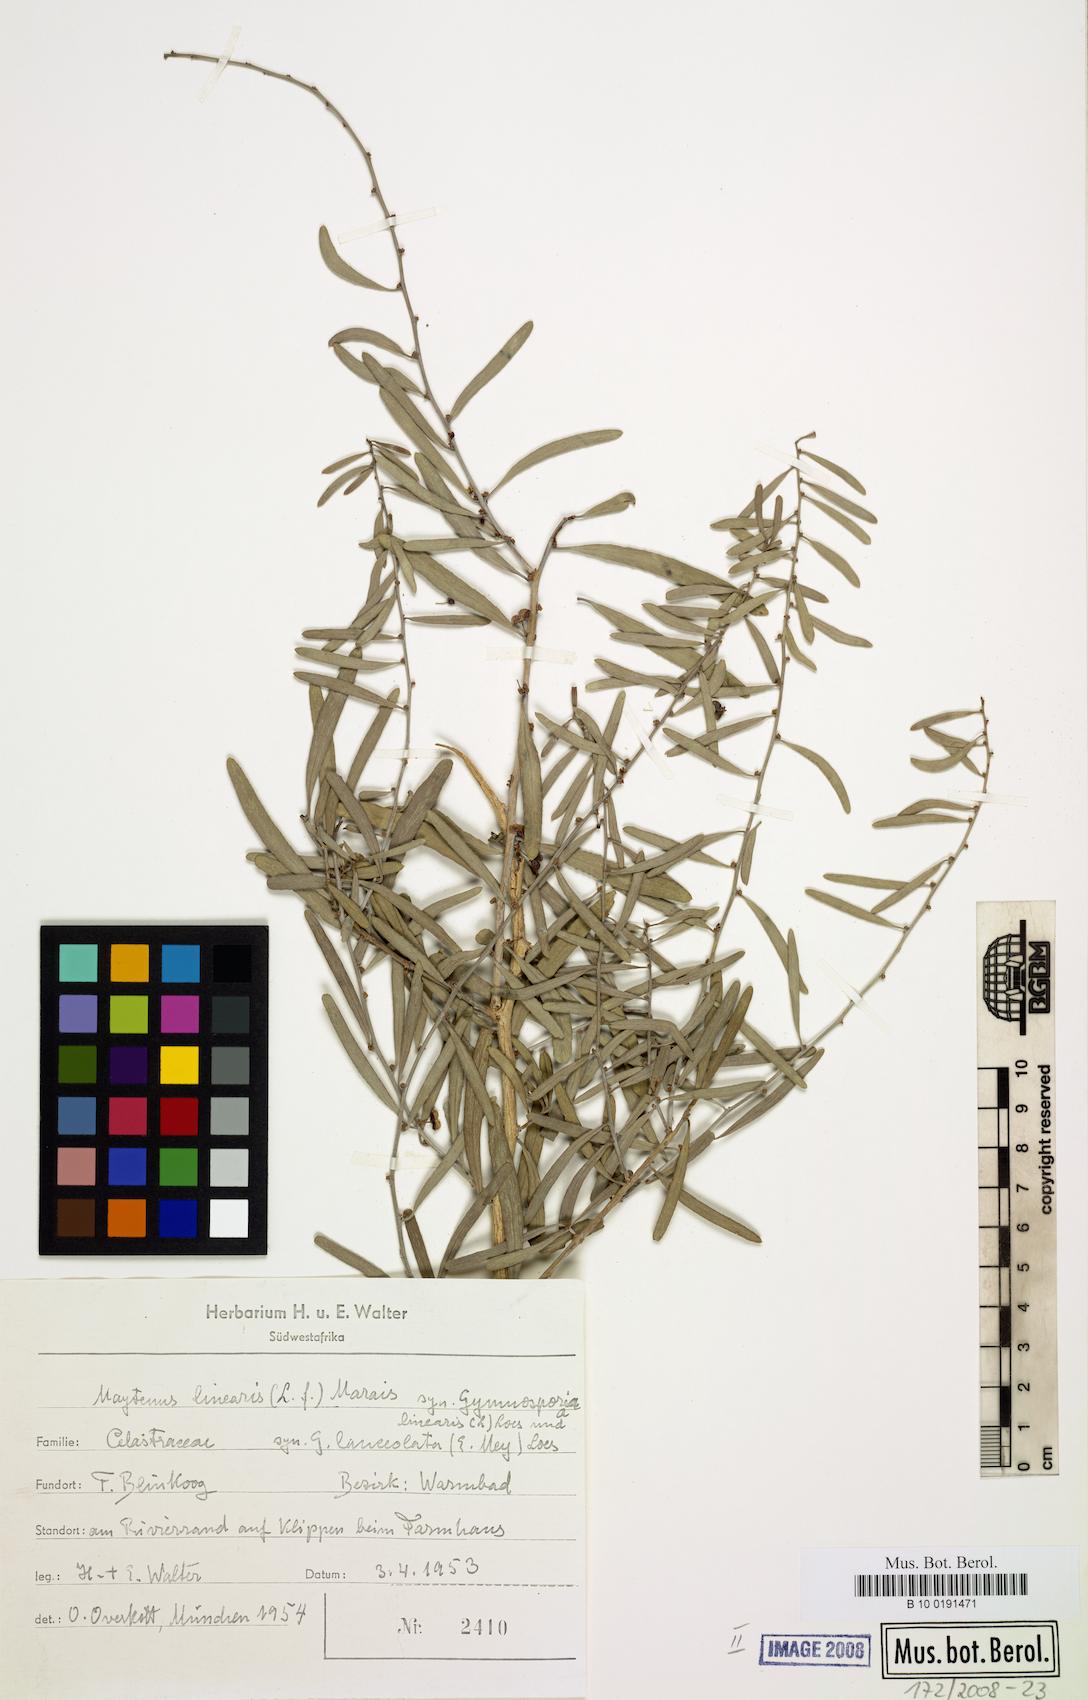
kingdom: Plantae
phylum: Tracheophyta
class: Magnoliopsida
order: Celastrales
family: Celastraceae
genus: Gymnosporia
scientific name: Gymnosporia linearis
